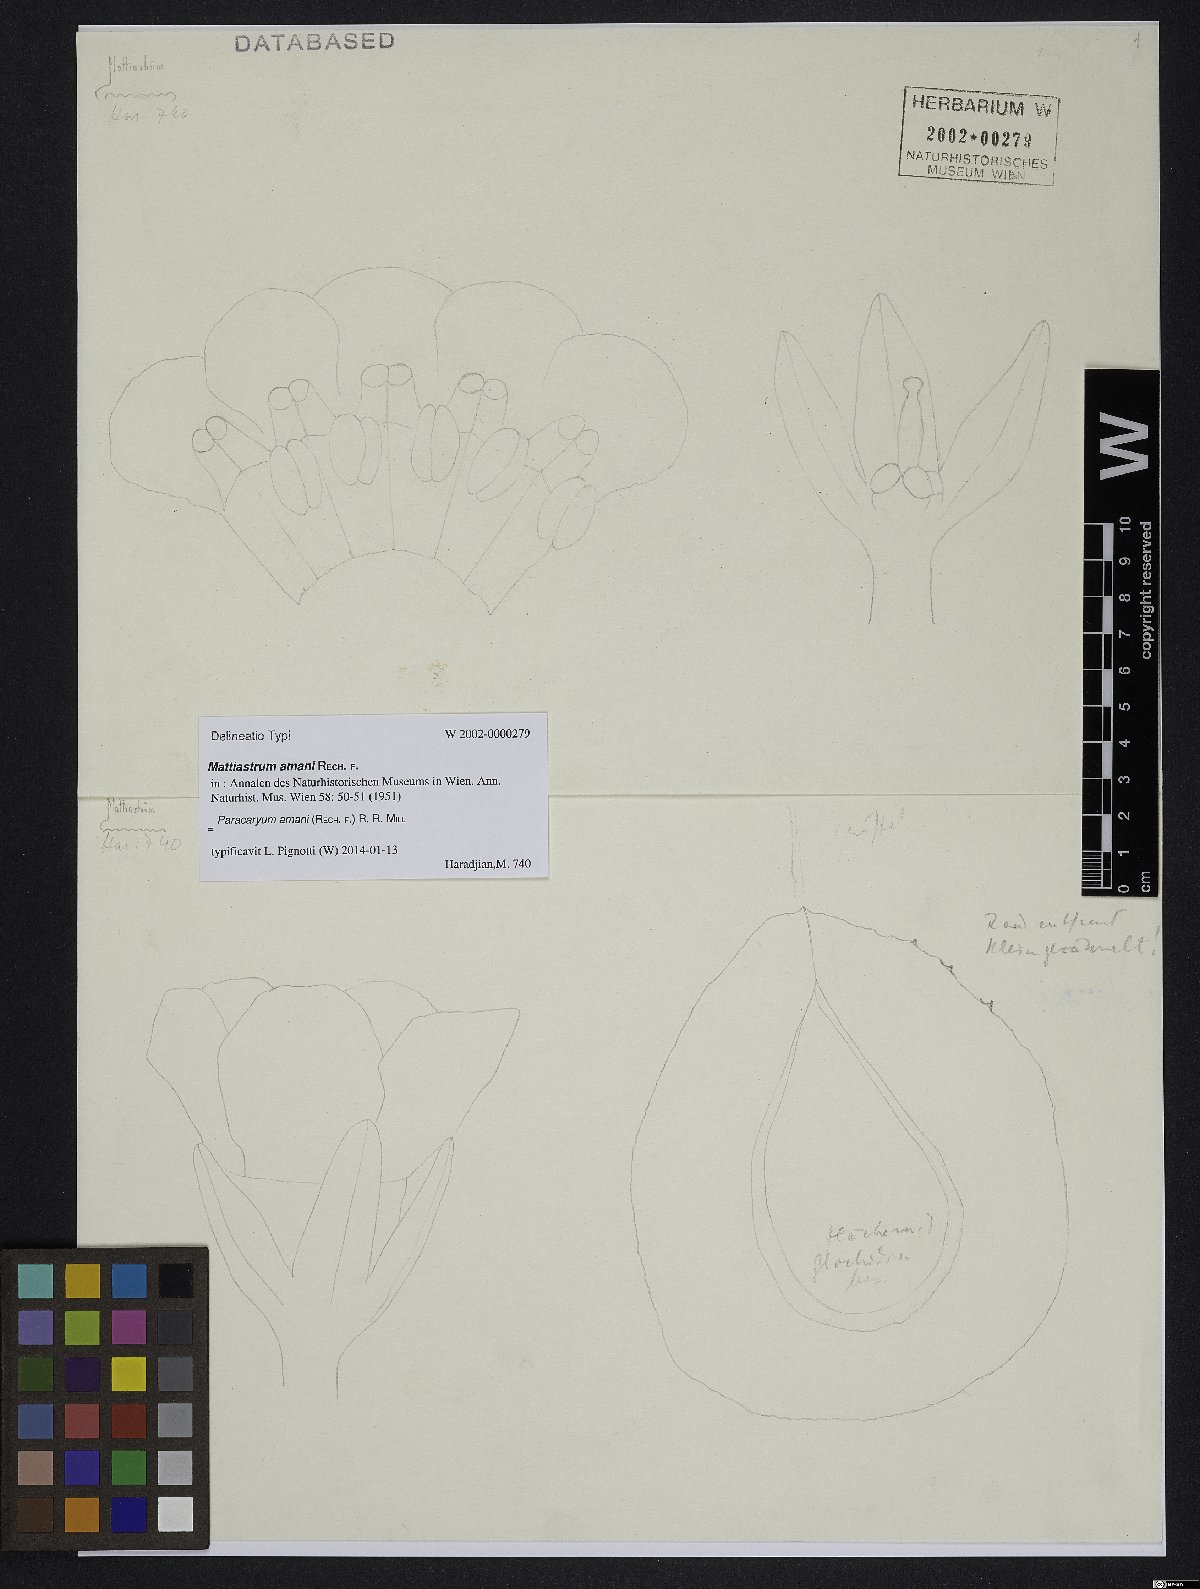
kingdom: Plantae
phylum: Tracheophyta
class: Magnoliopsida
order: Boraginales
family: Boraginaceae
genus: Paracaryum
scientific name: Paracaryum amani
